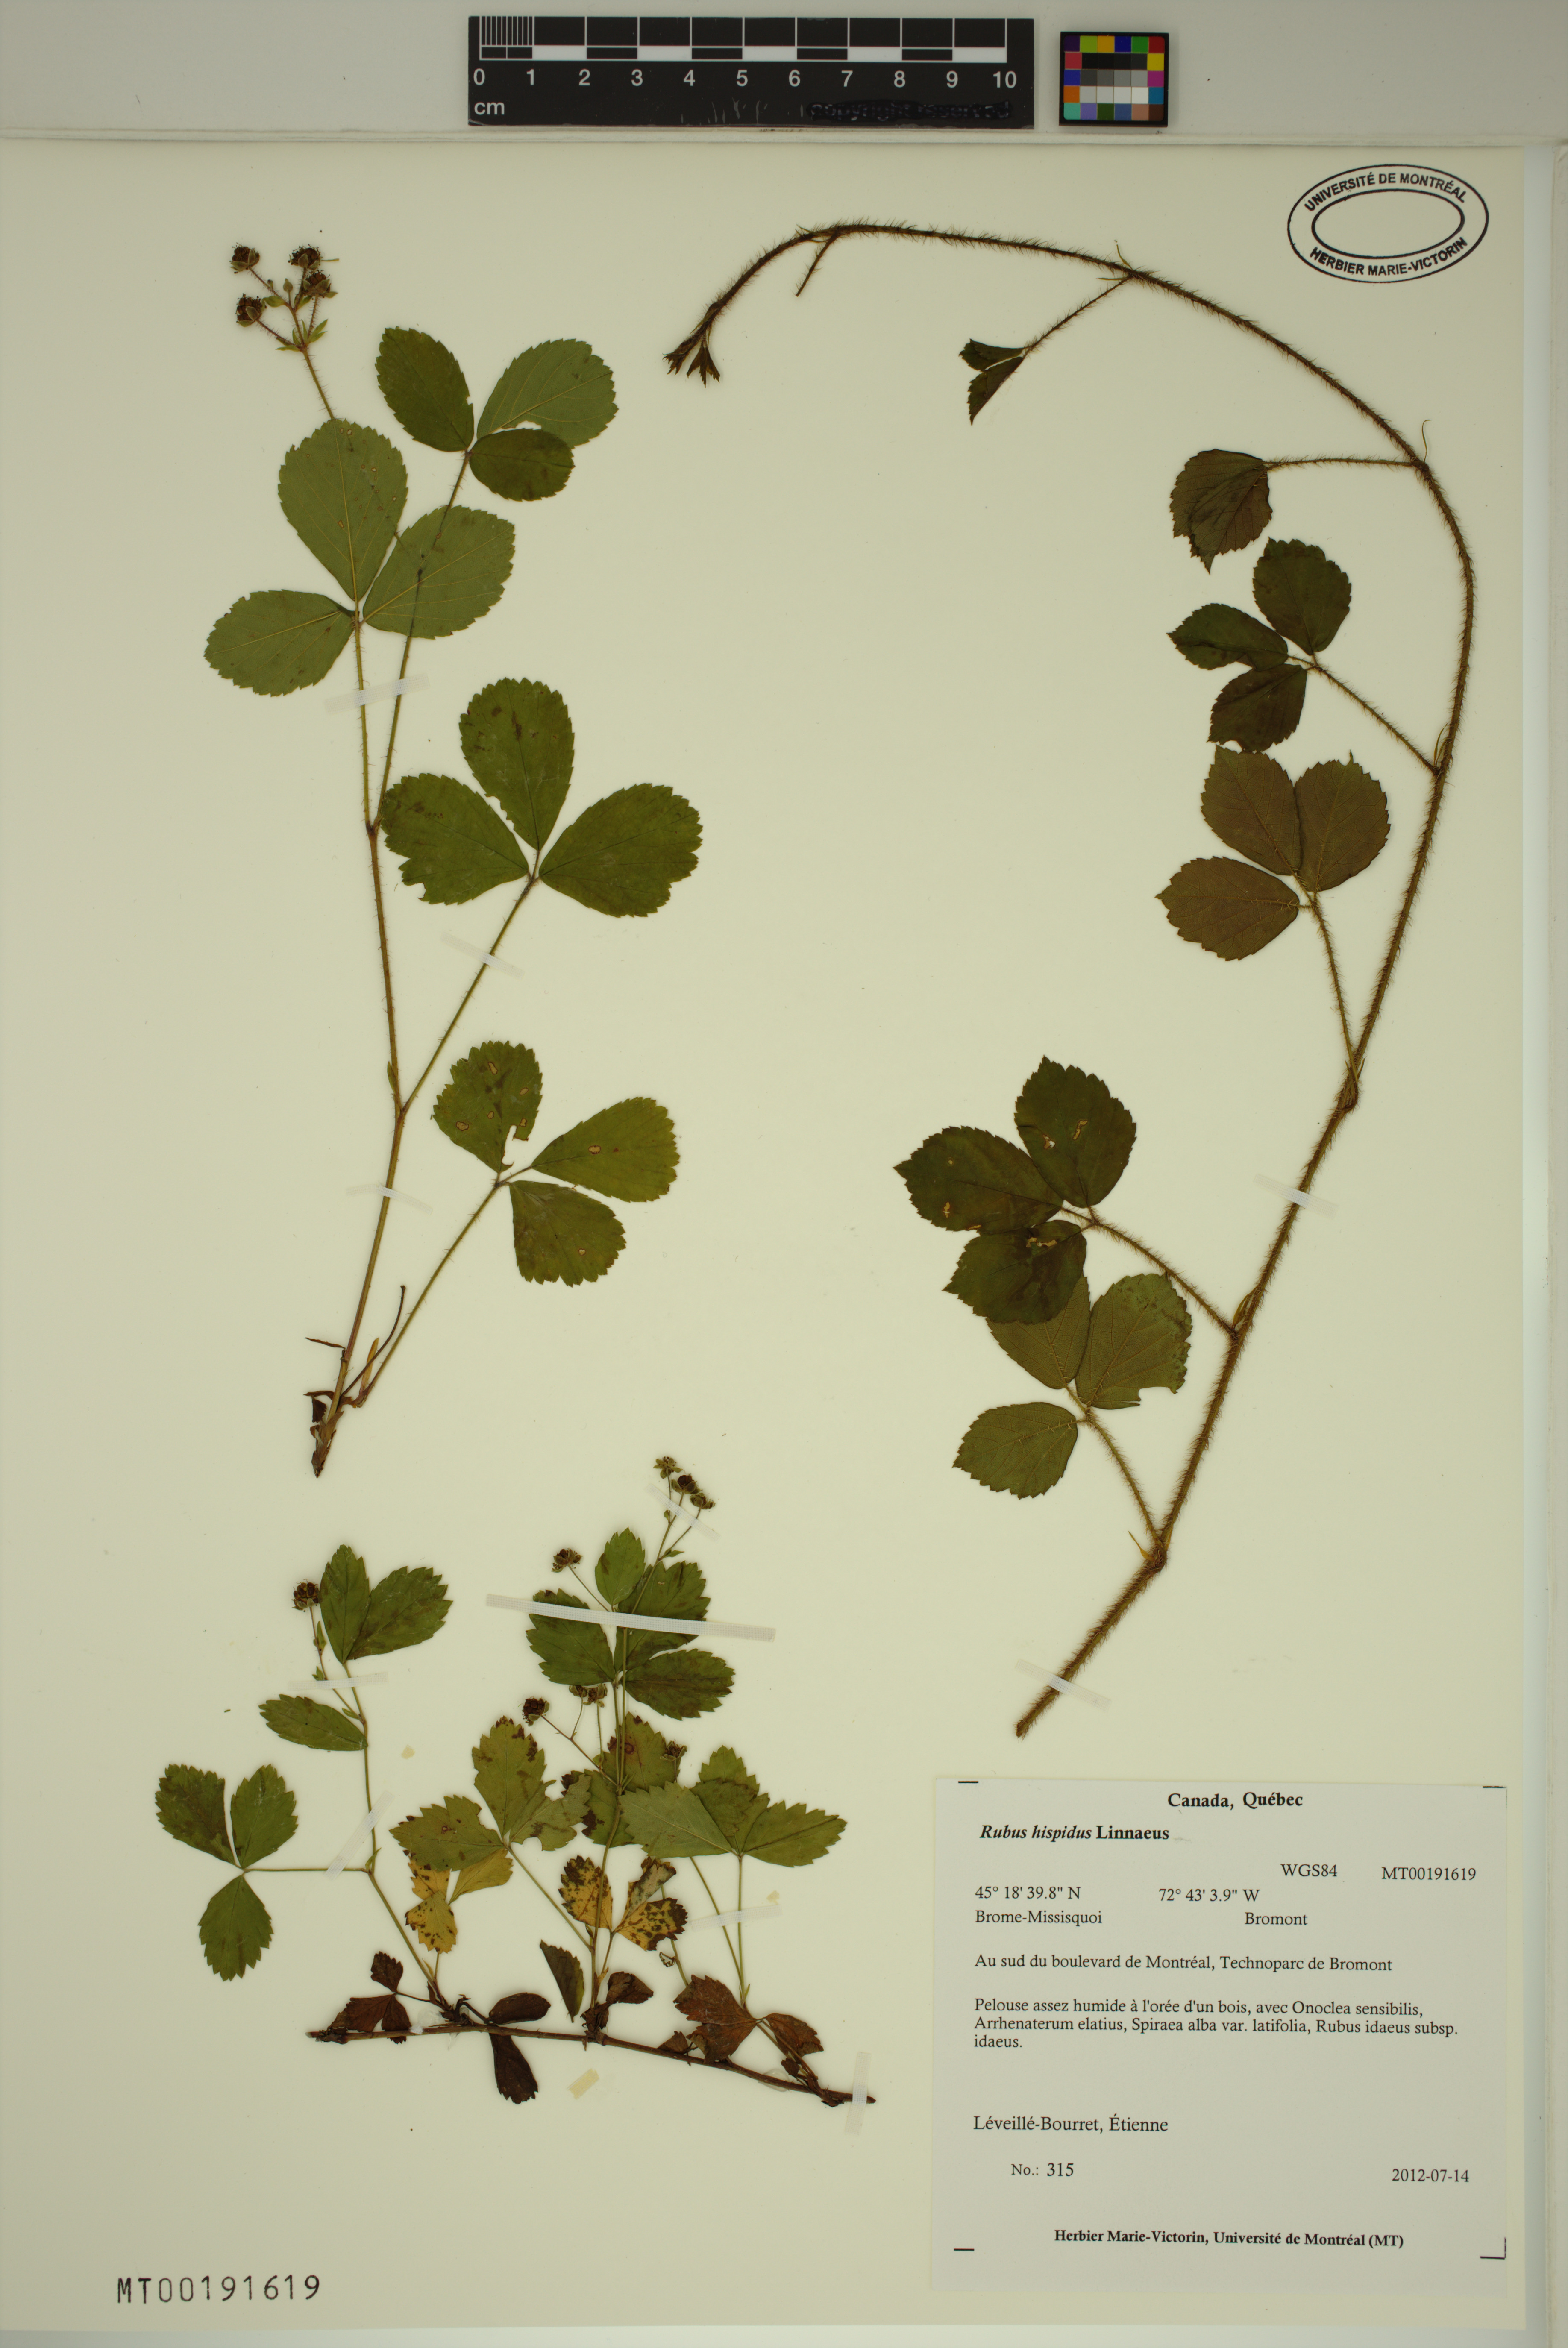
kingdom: Plantae
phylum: Tracheophyta
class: Magnoliopsida
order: Rosales
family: Rosaceae
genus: Rubus
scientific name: Rubus hispidus
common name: Running blackberry
